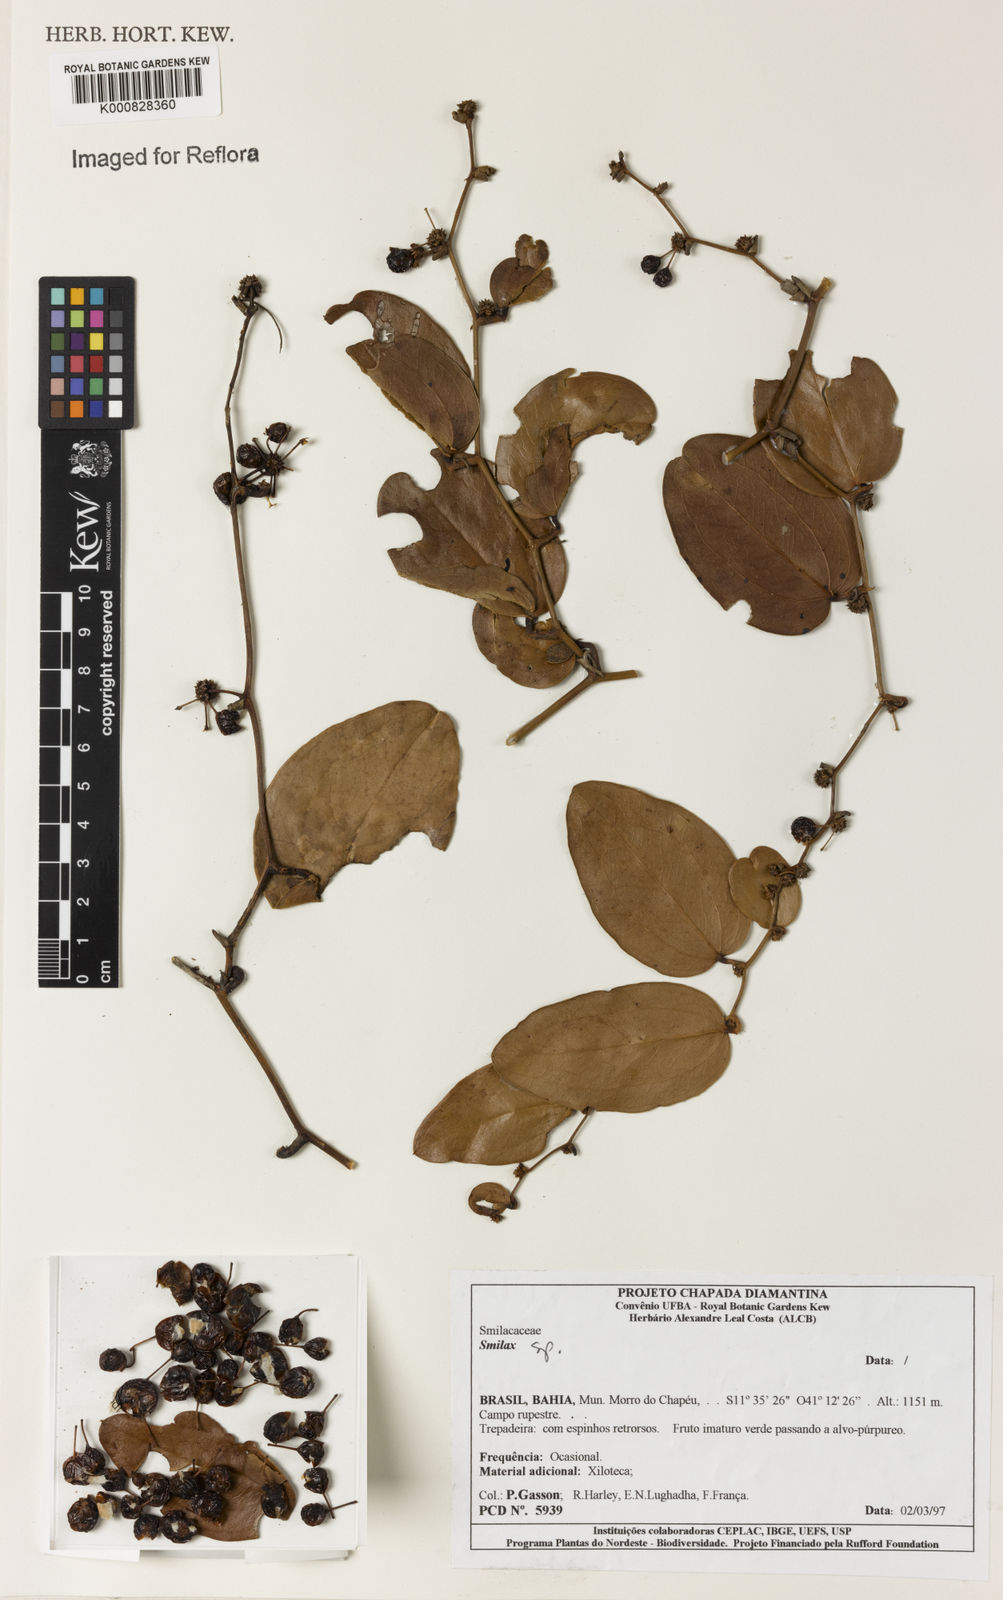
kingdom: Plantae
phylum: Tracheophyta
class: Liliopsida
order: Liliales
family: Smilacaceae
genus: Smilax
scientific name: Smilax
